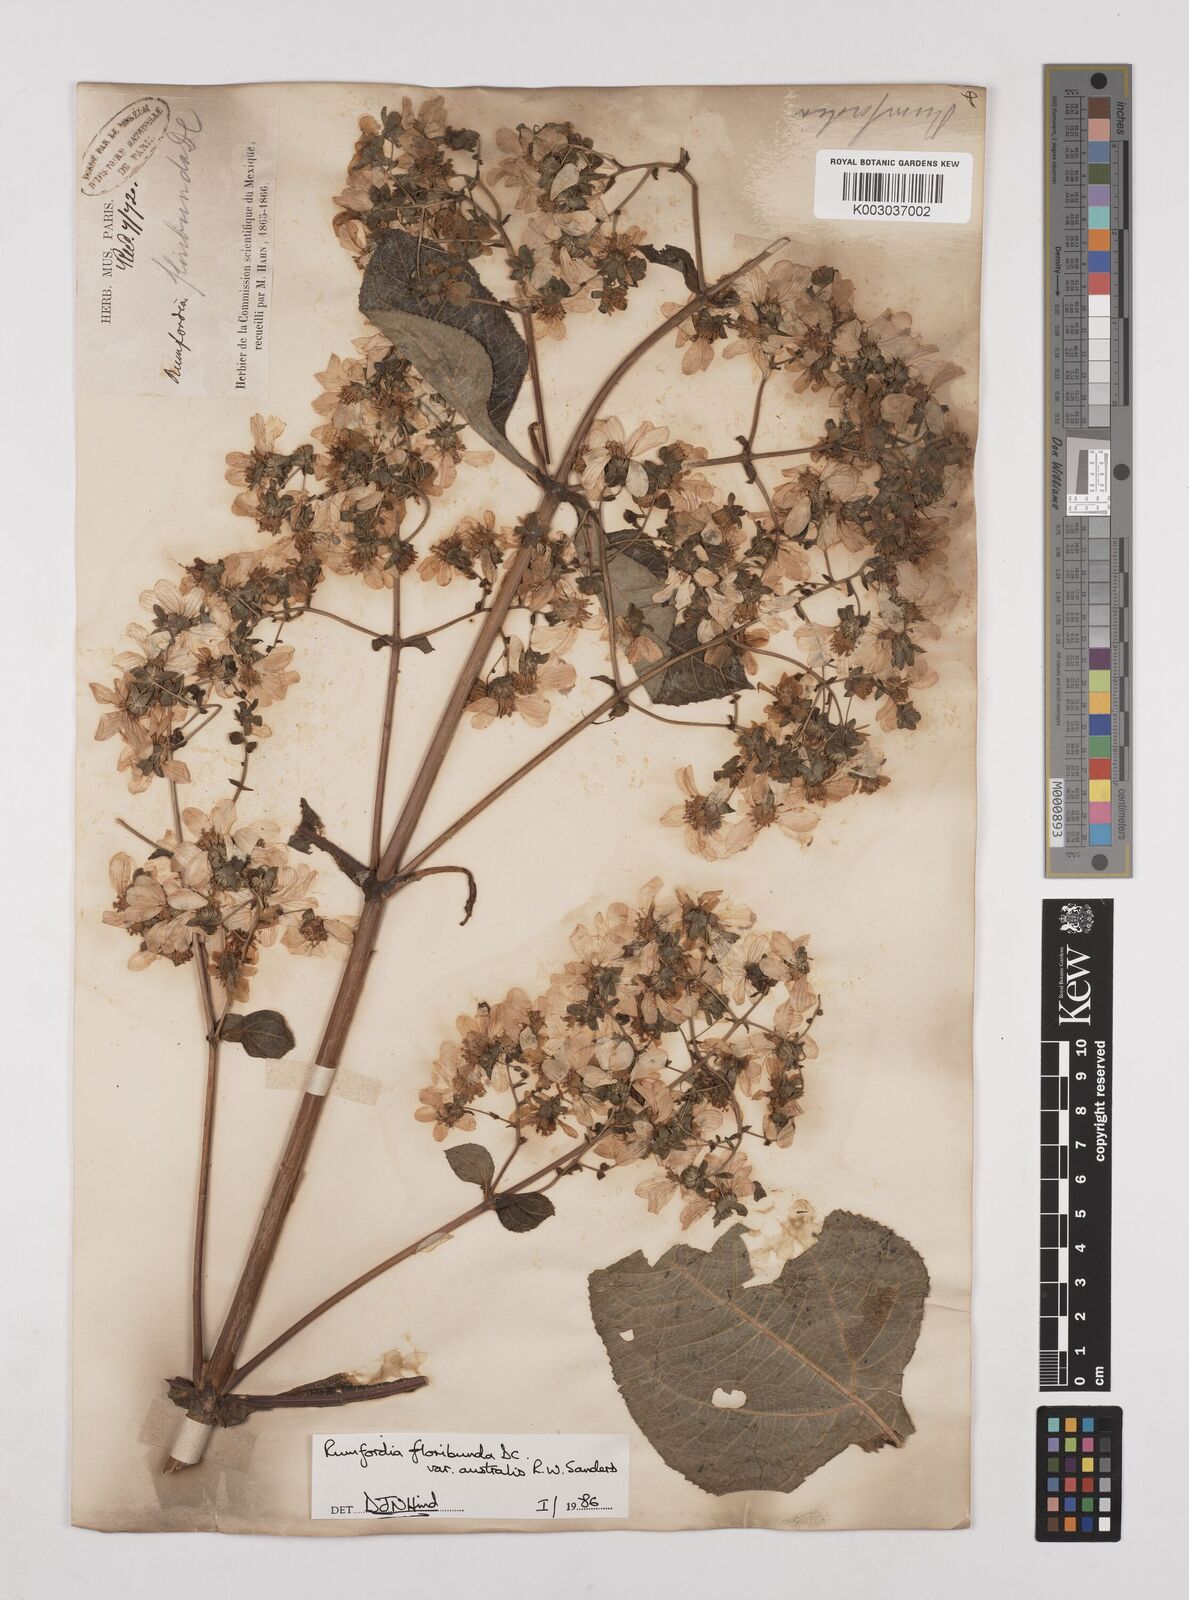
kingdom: Plantae
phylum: Tracheophyta
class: Magnoliopsida
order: Asterales
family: Asteraceae
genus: Rumfordia
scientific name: Rumfordia floribunda
